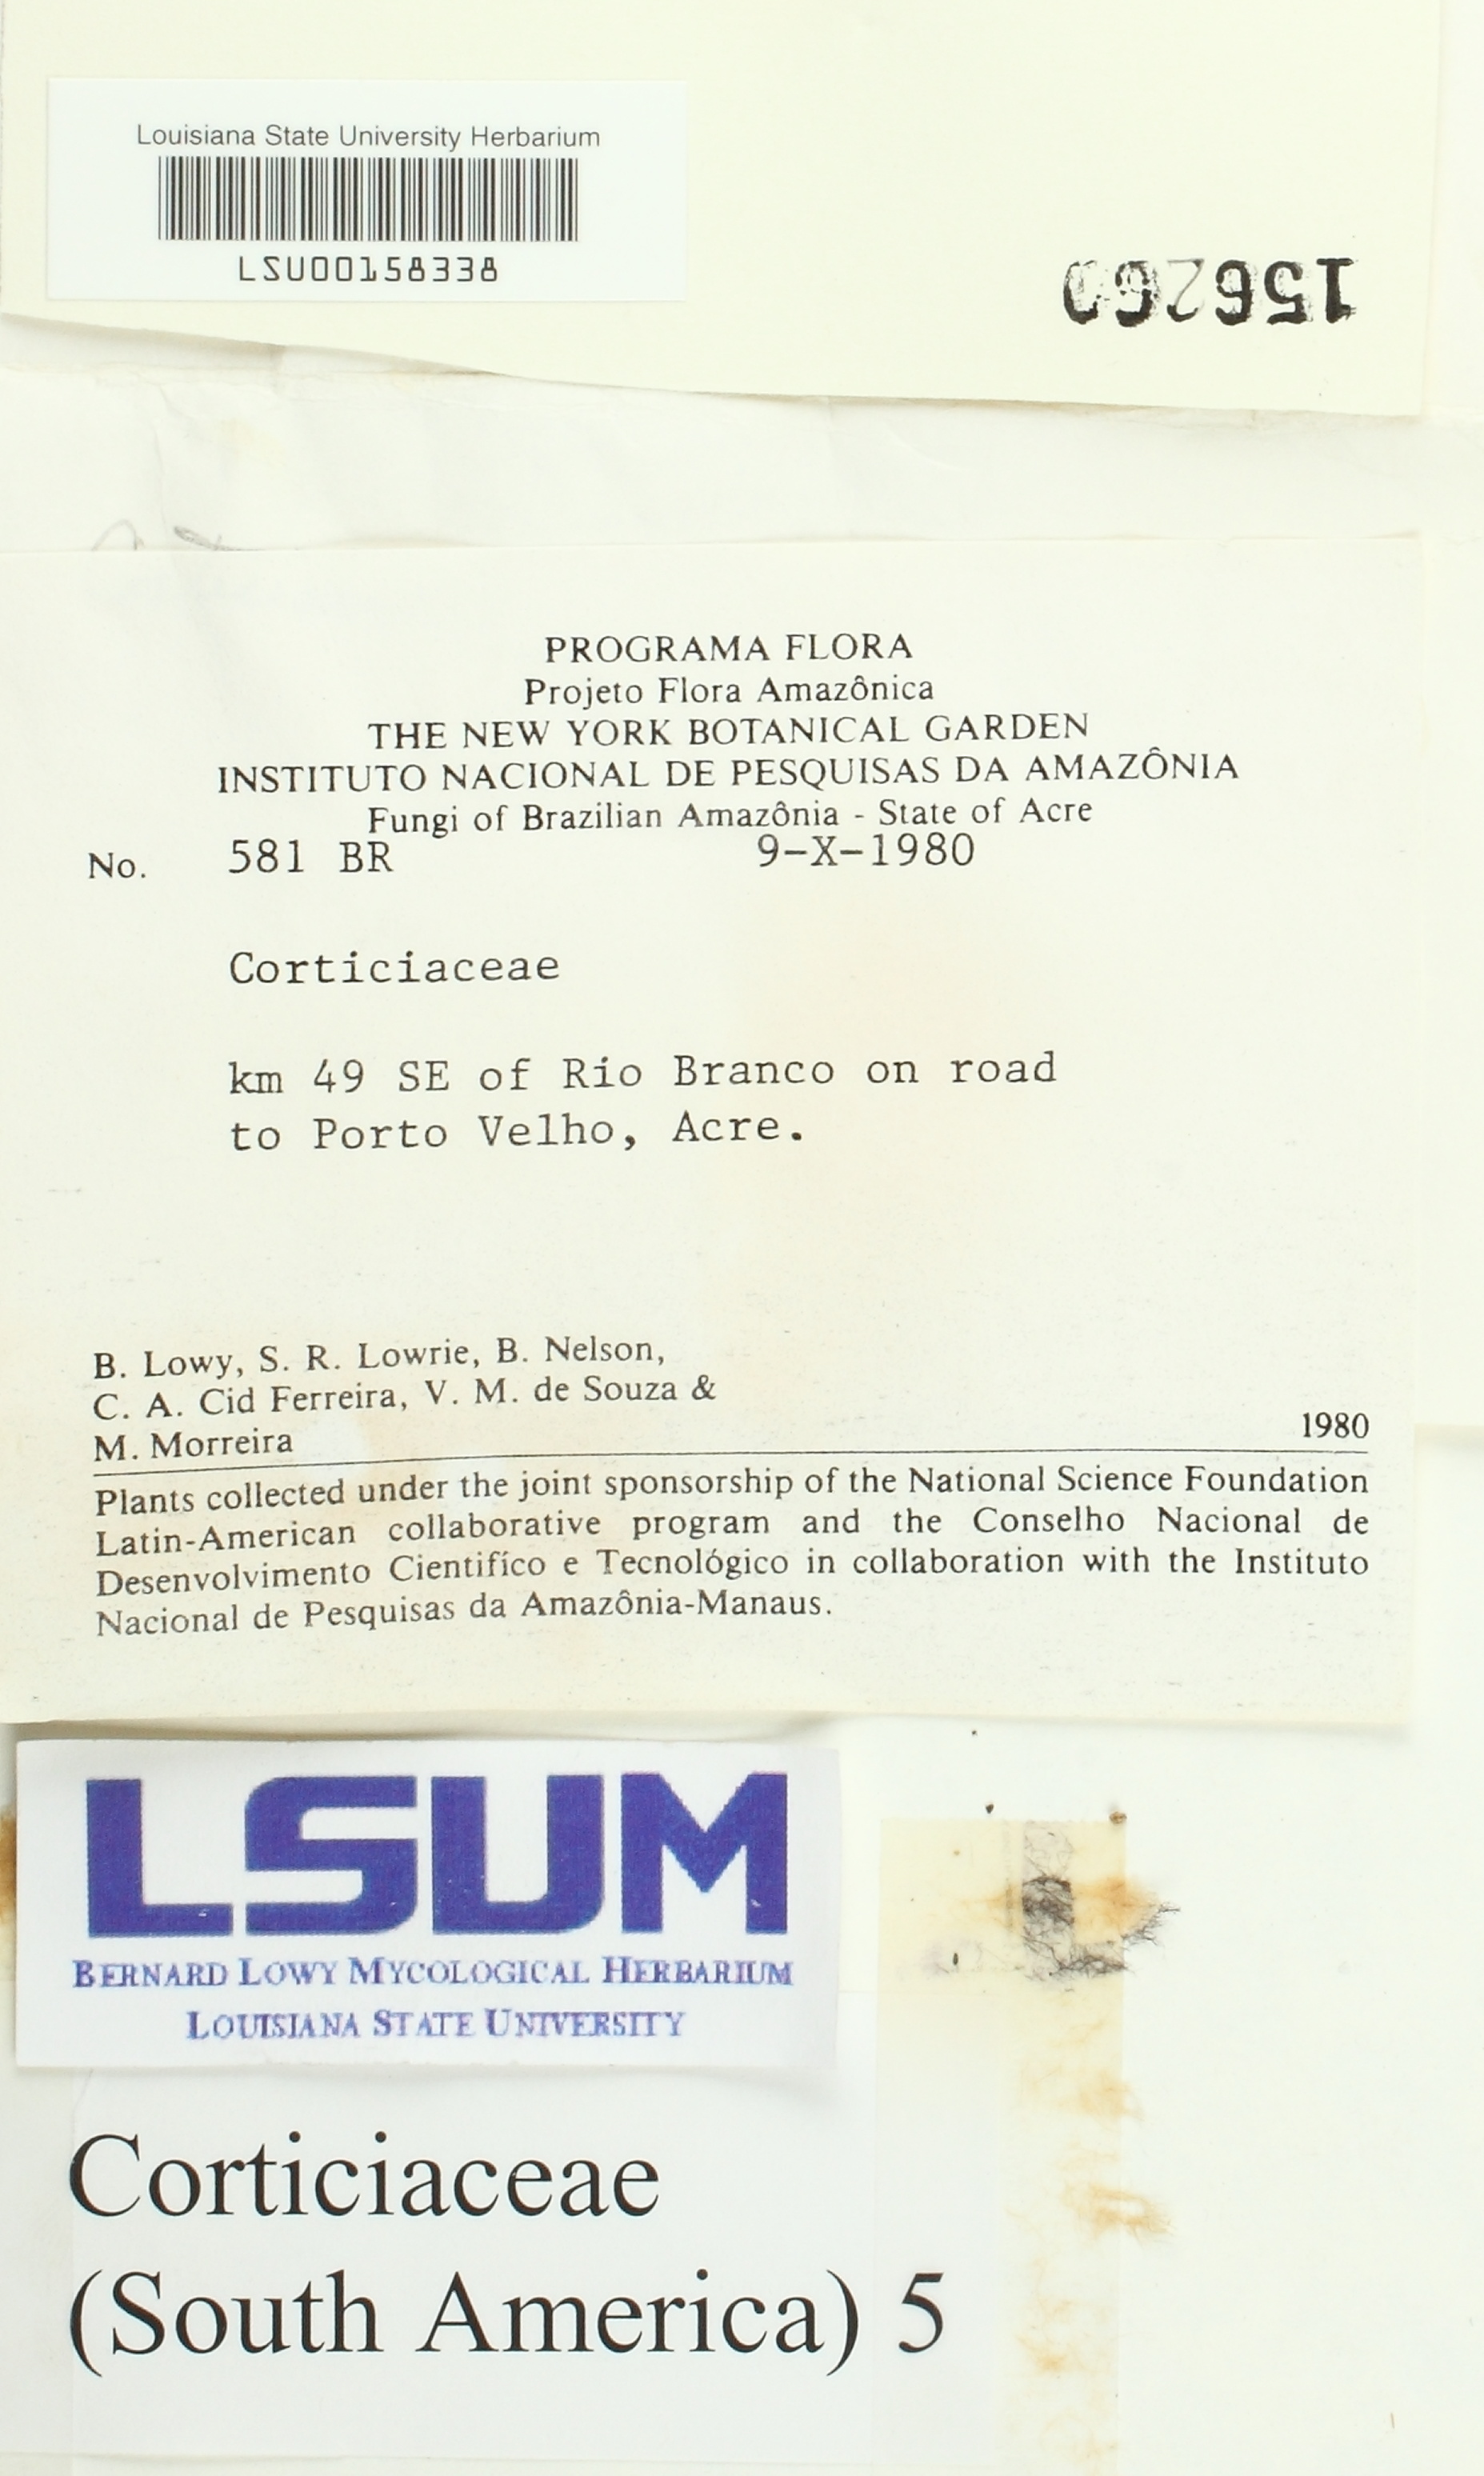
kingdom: Fungi
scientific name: Fungi
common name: Fungi
